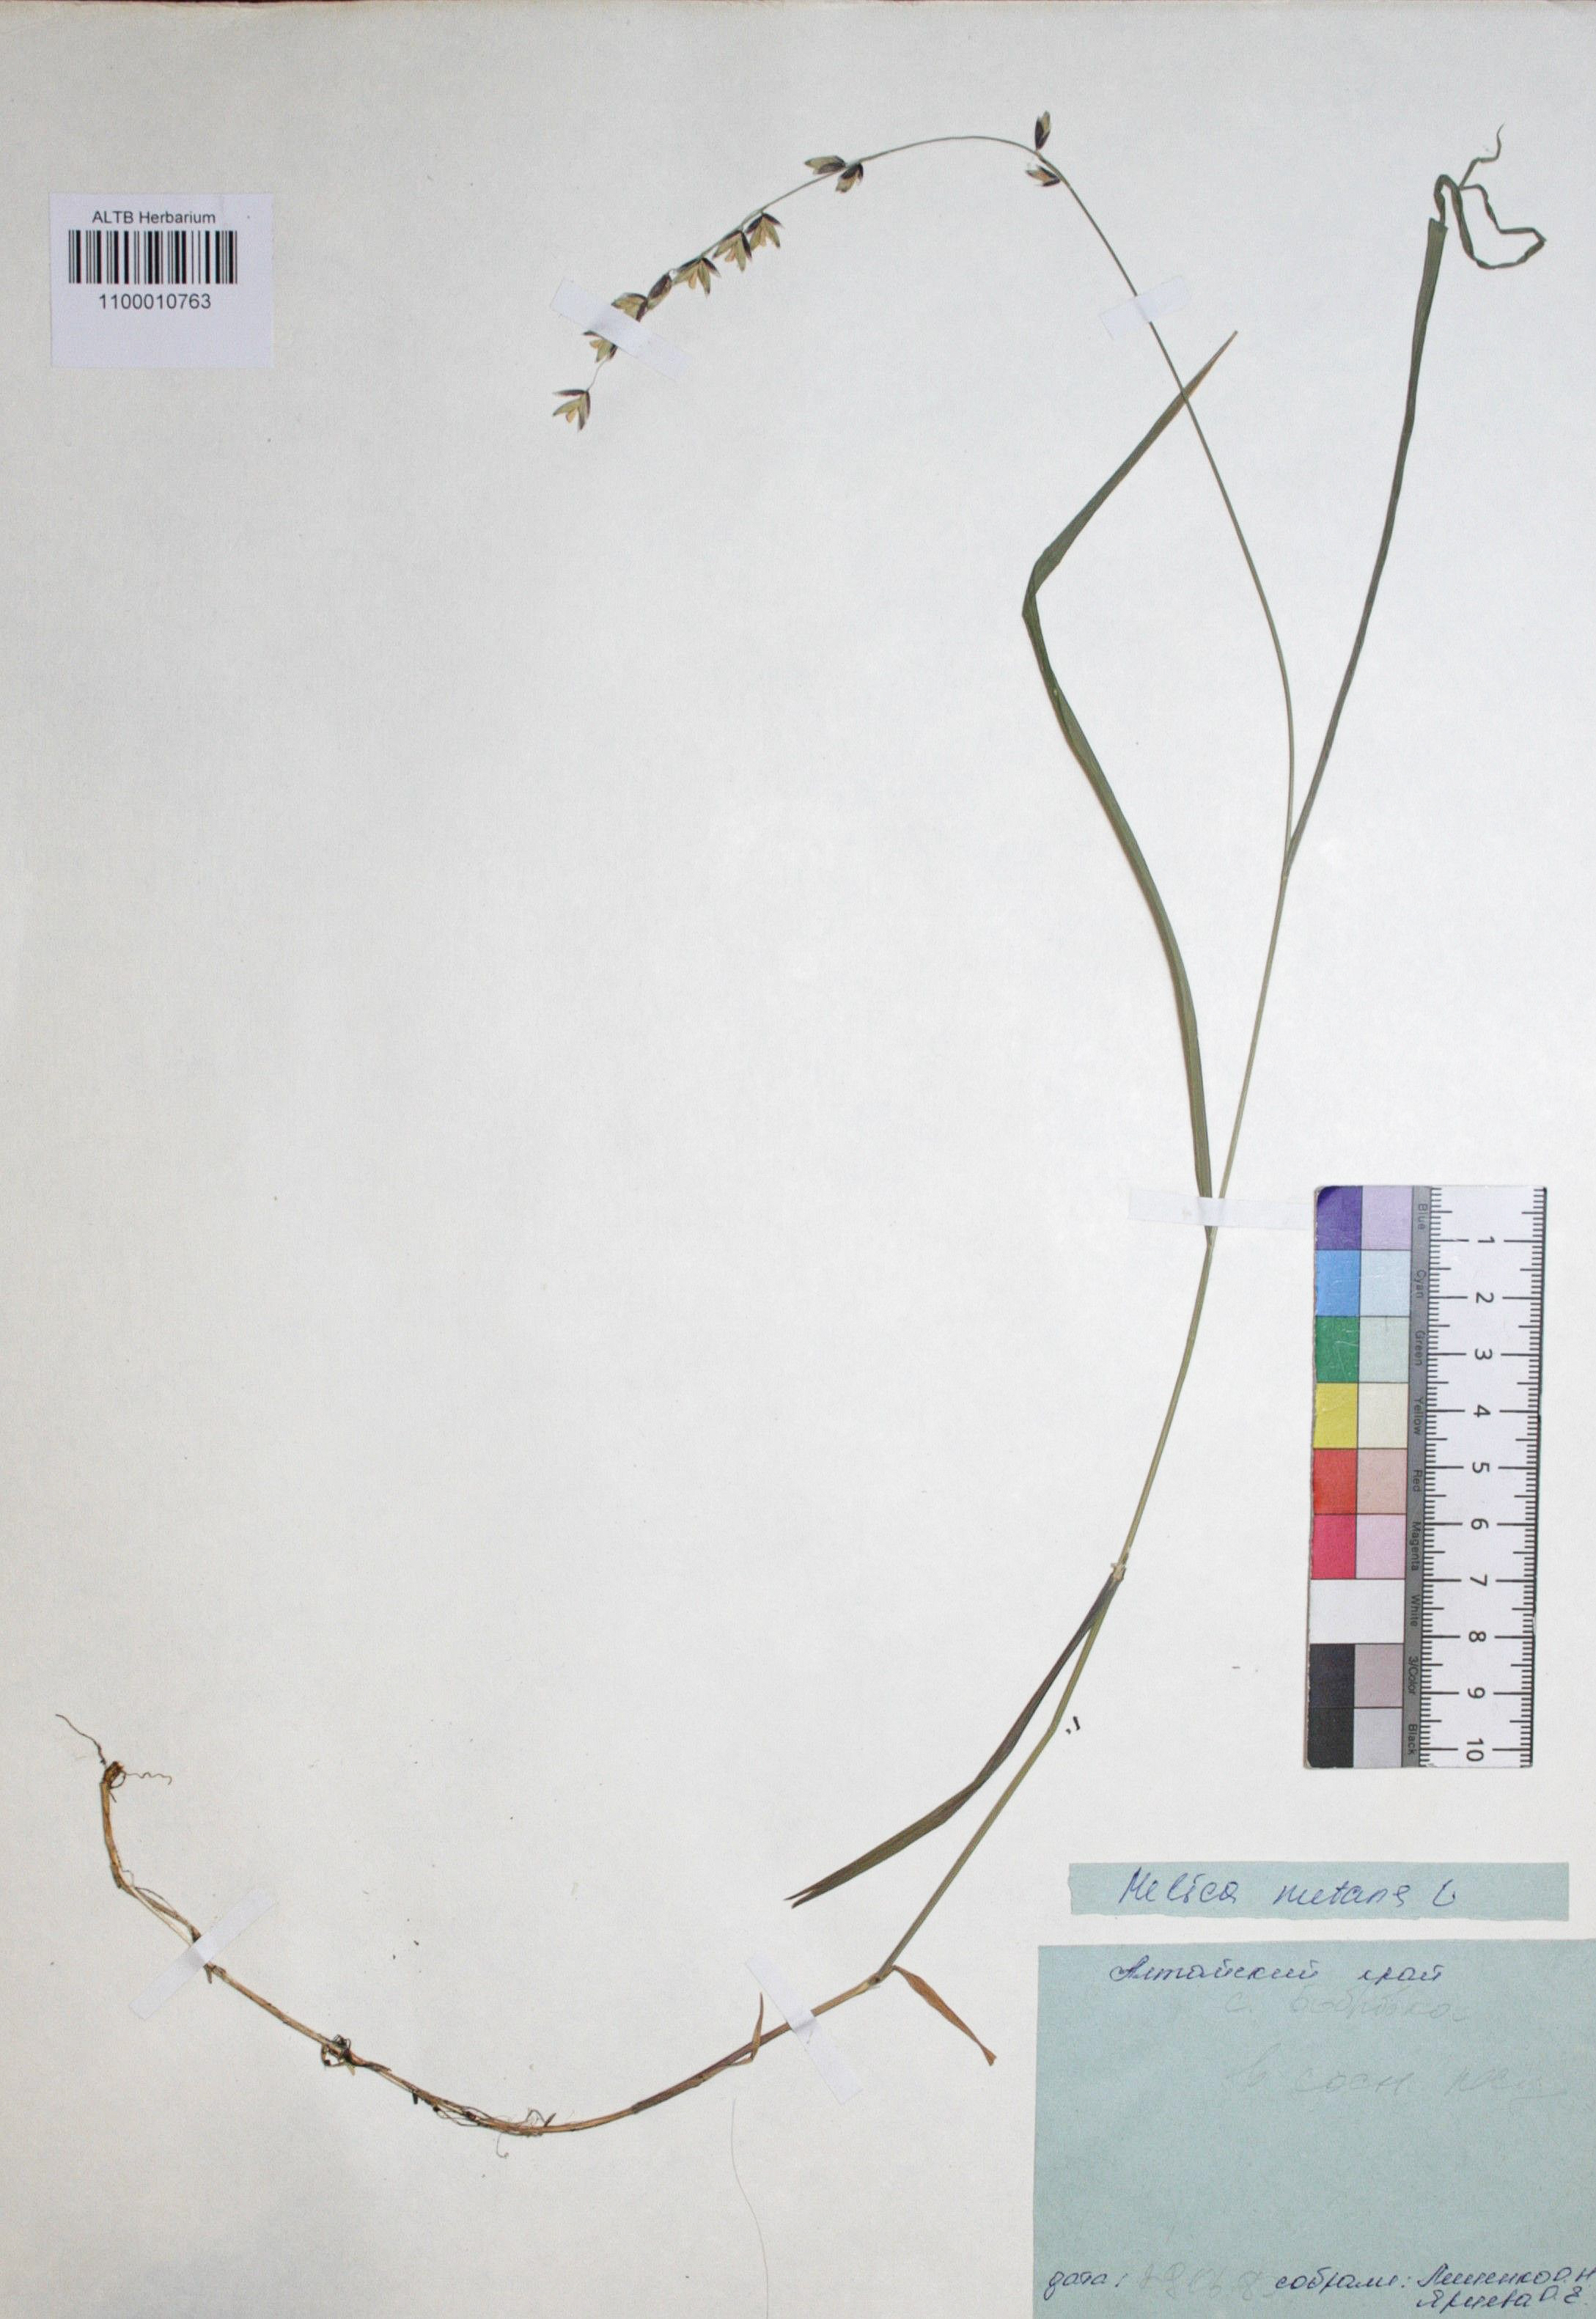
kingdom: Plantae
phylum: Tracheophyta
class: Liliopsida
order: Poales
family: Poaceae
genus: Melica
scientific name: Melica nutans
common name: Mountain melick
